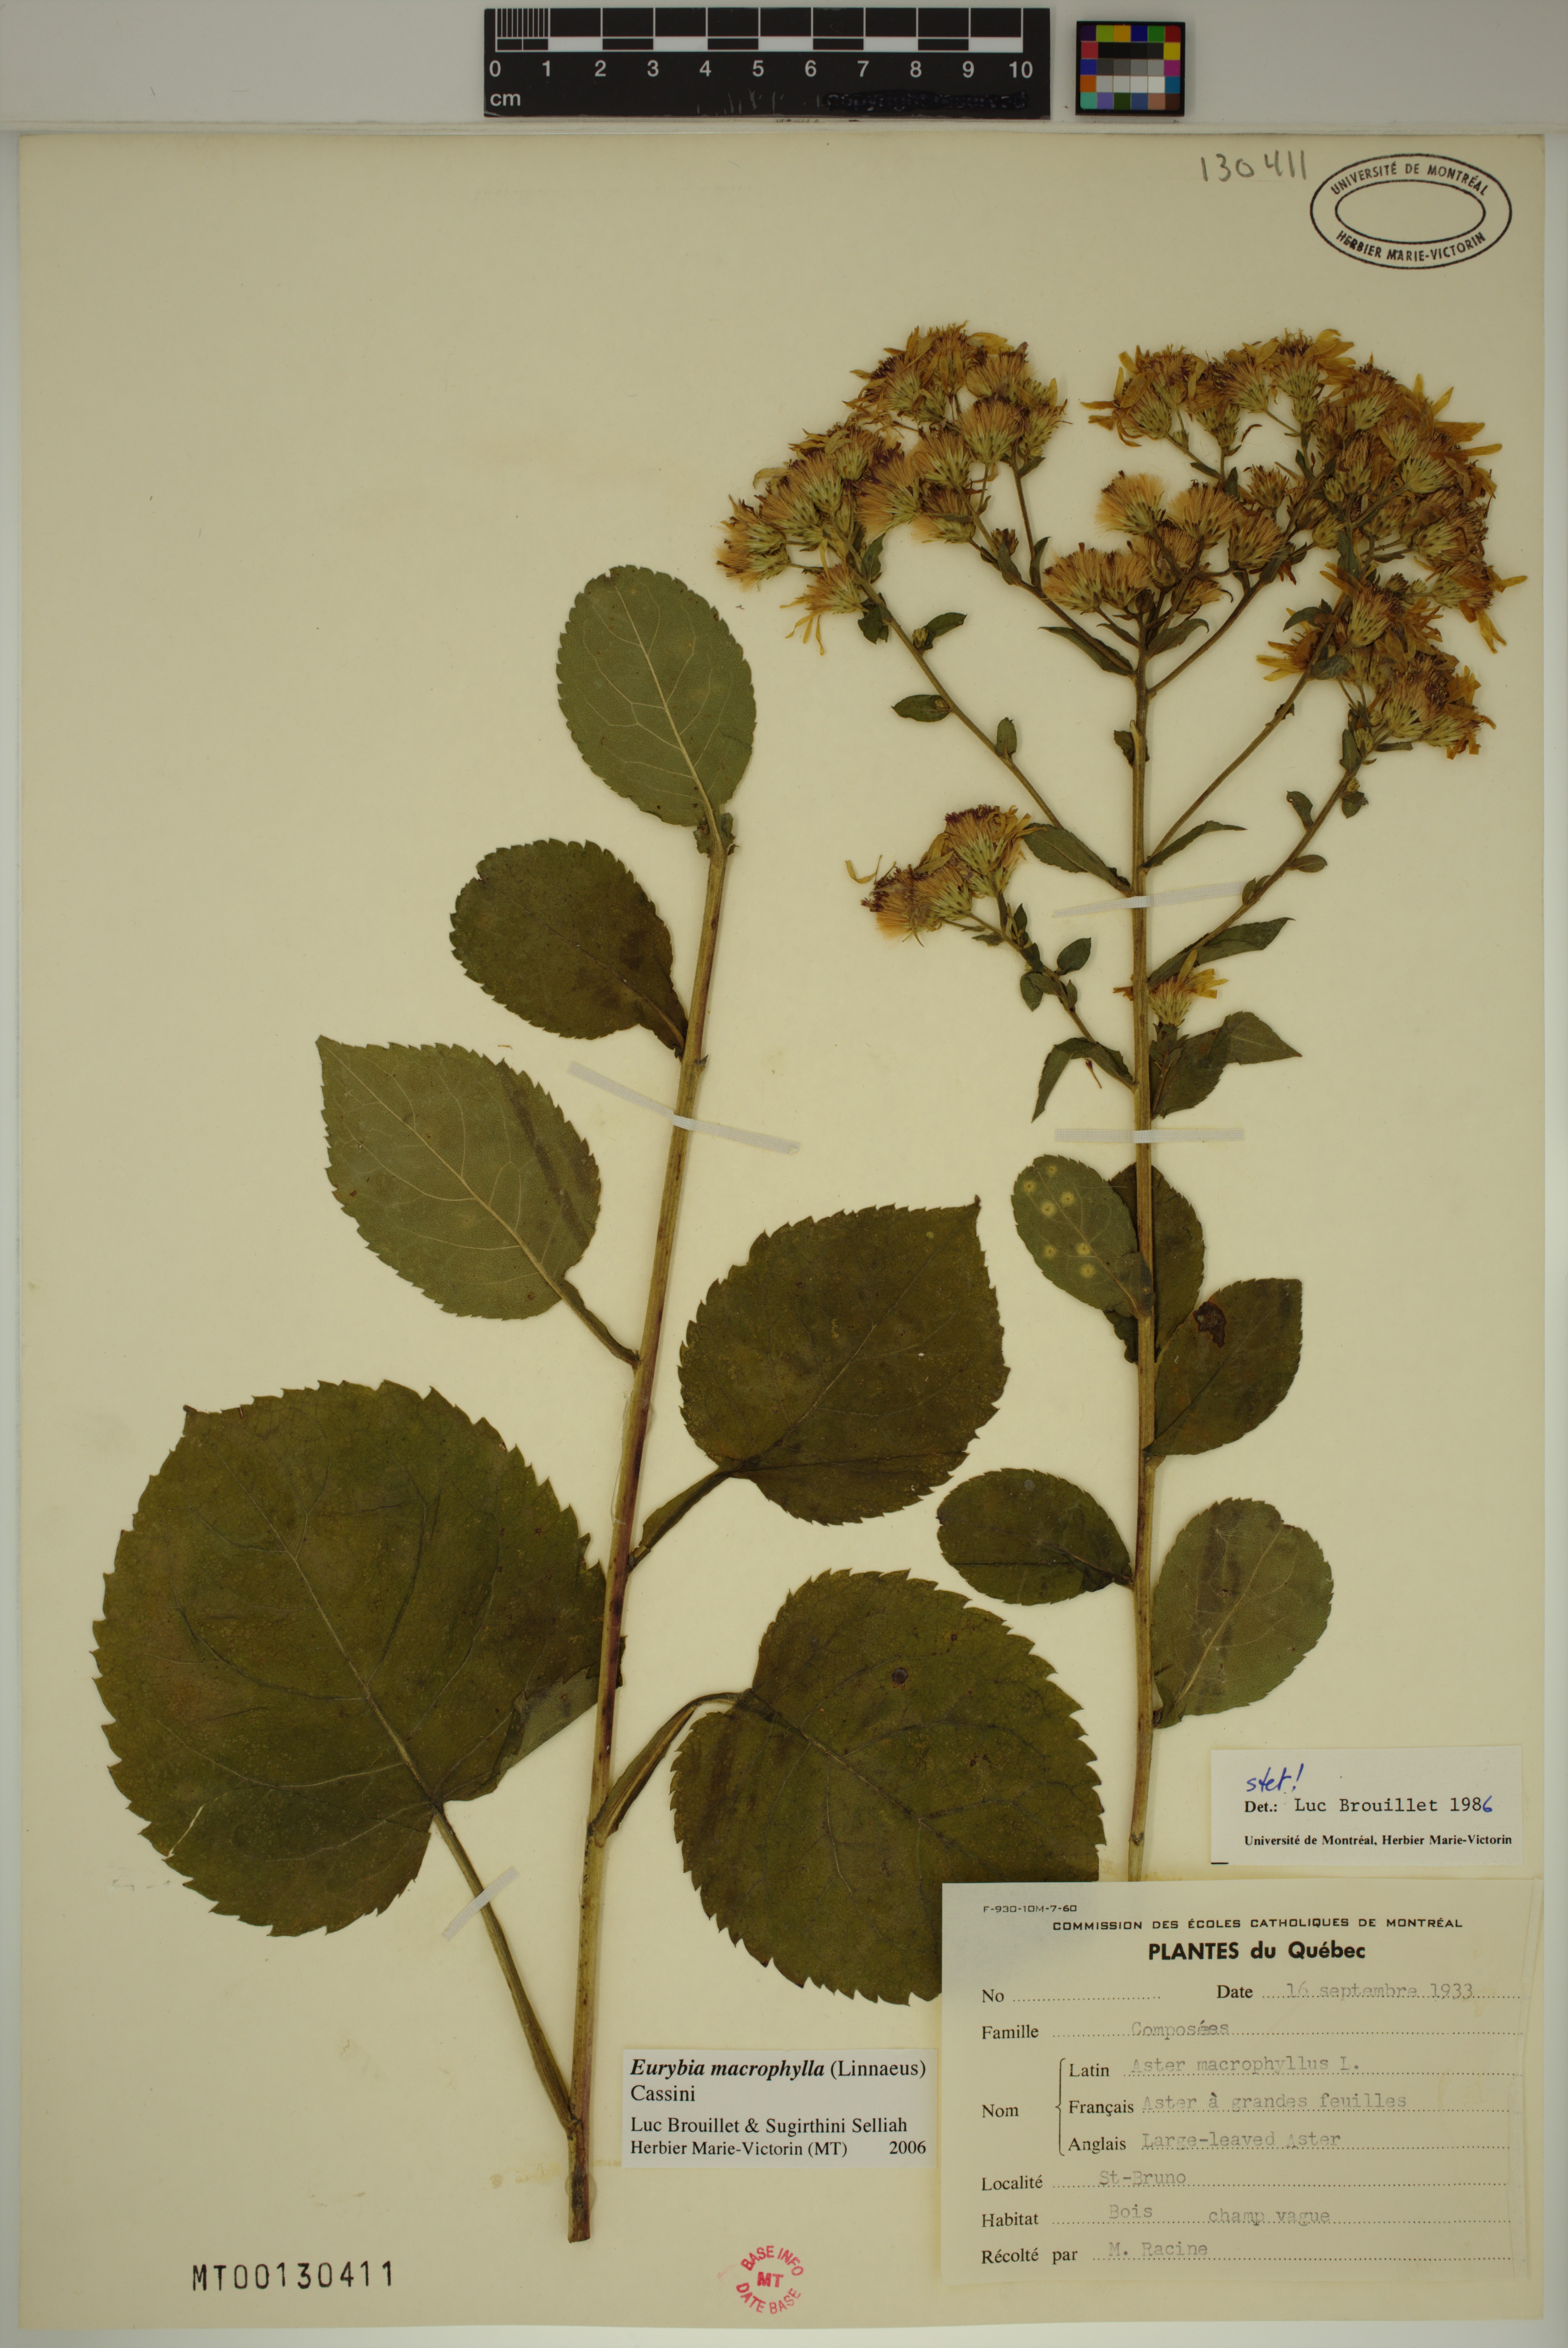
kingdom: Plantae
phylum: Tracheophyta
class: Magnoliopsida
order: Asterales
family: Asteraceae
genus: Eurybia
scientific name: Eurybia macrophylla
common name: Big-leaved aster
